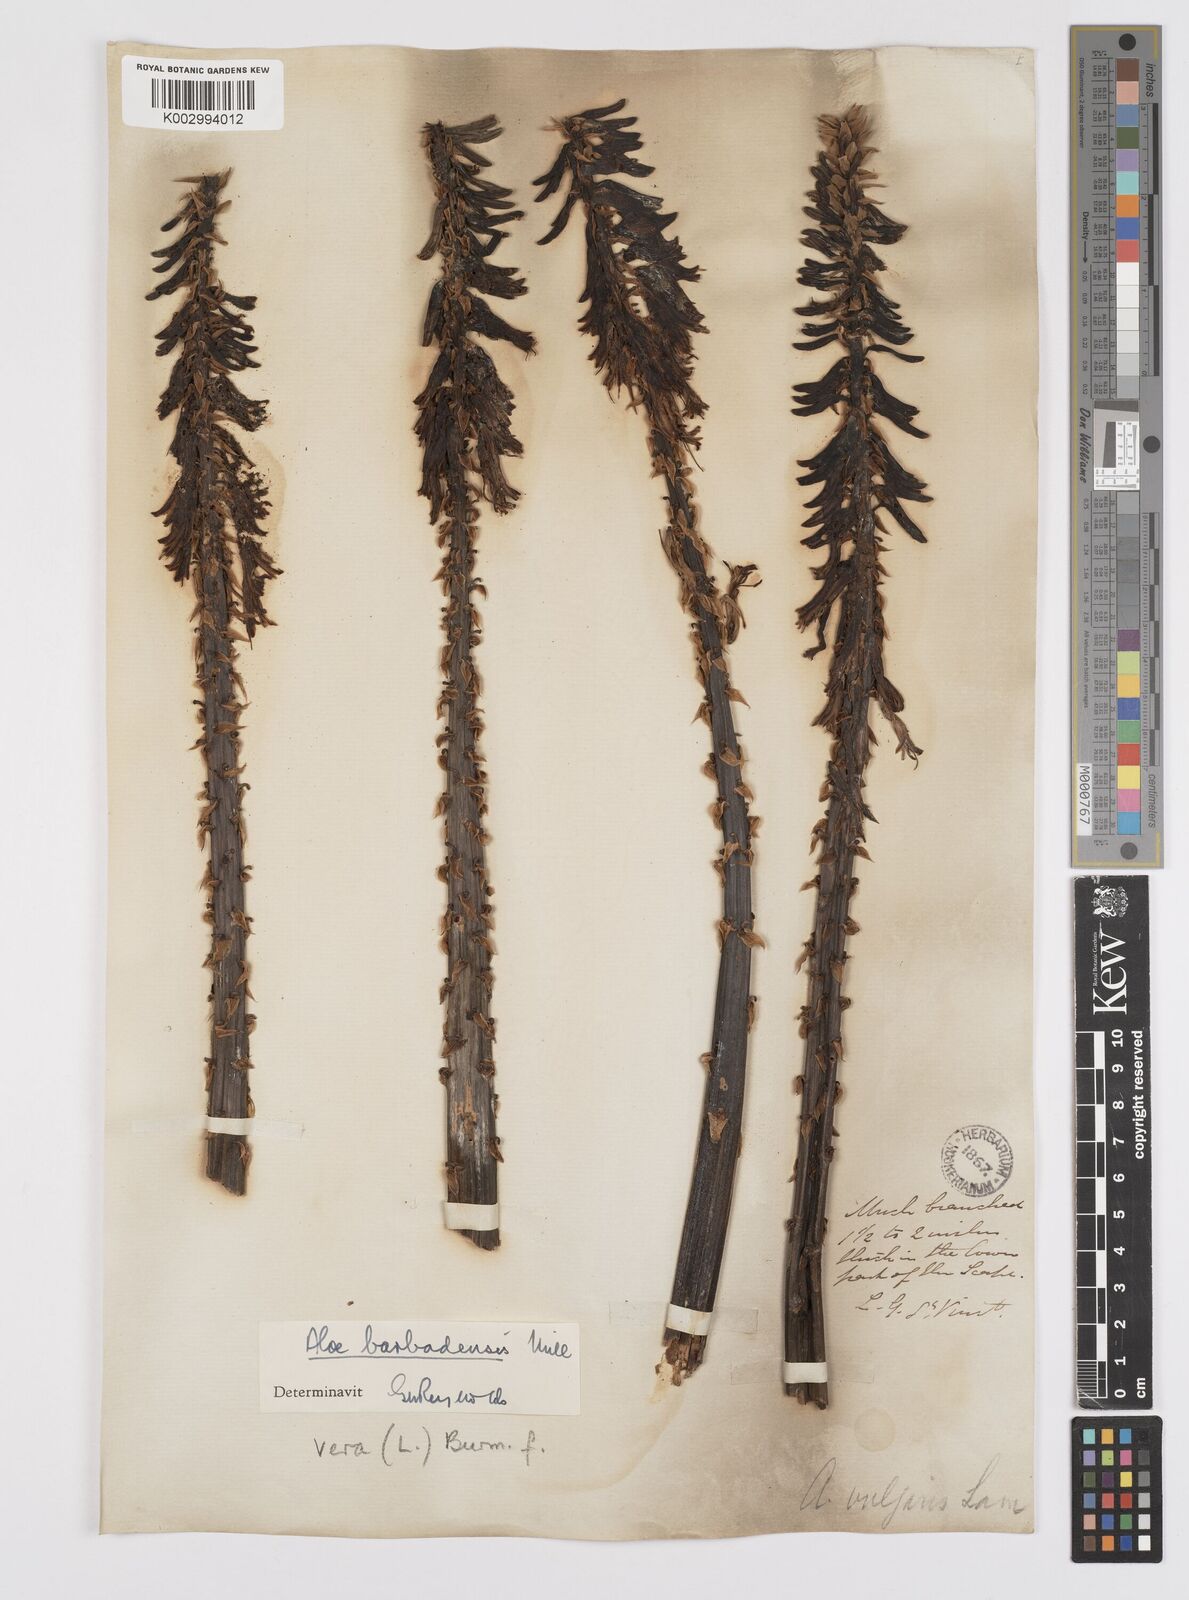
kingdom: Plantae
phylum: Tracheophyta
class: Liliopsida
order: Asparagales
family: Asphodelaceae
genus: Aloe
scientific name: Aloe vera
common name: Barbados aloe
